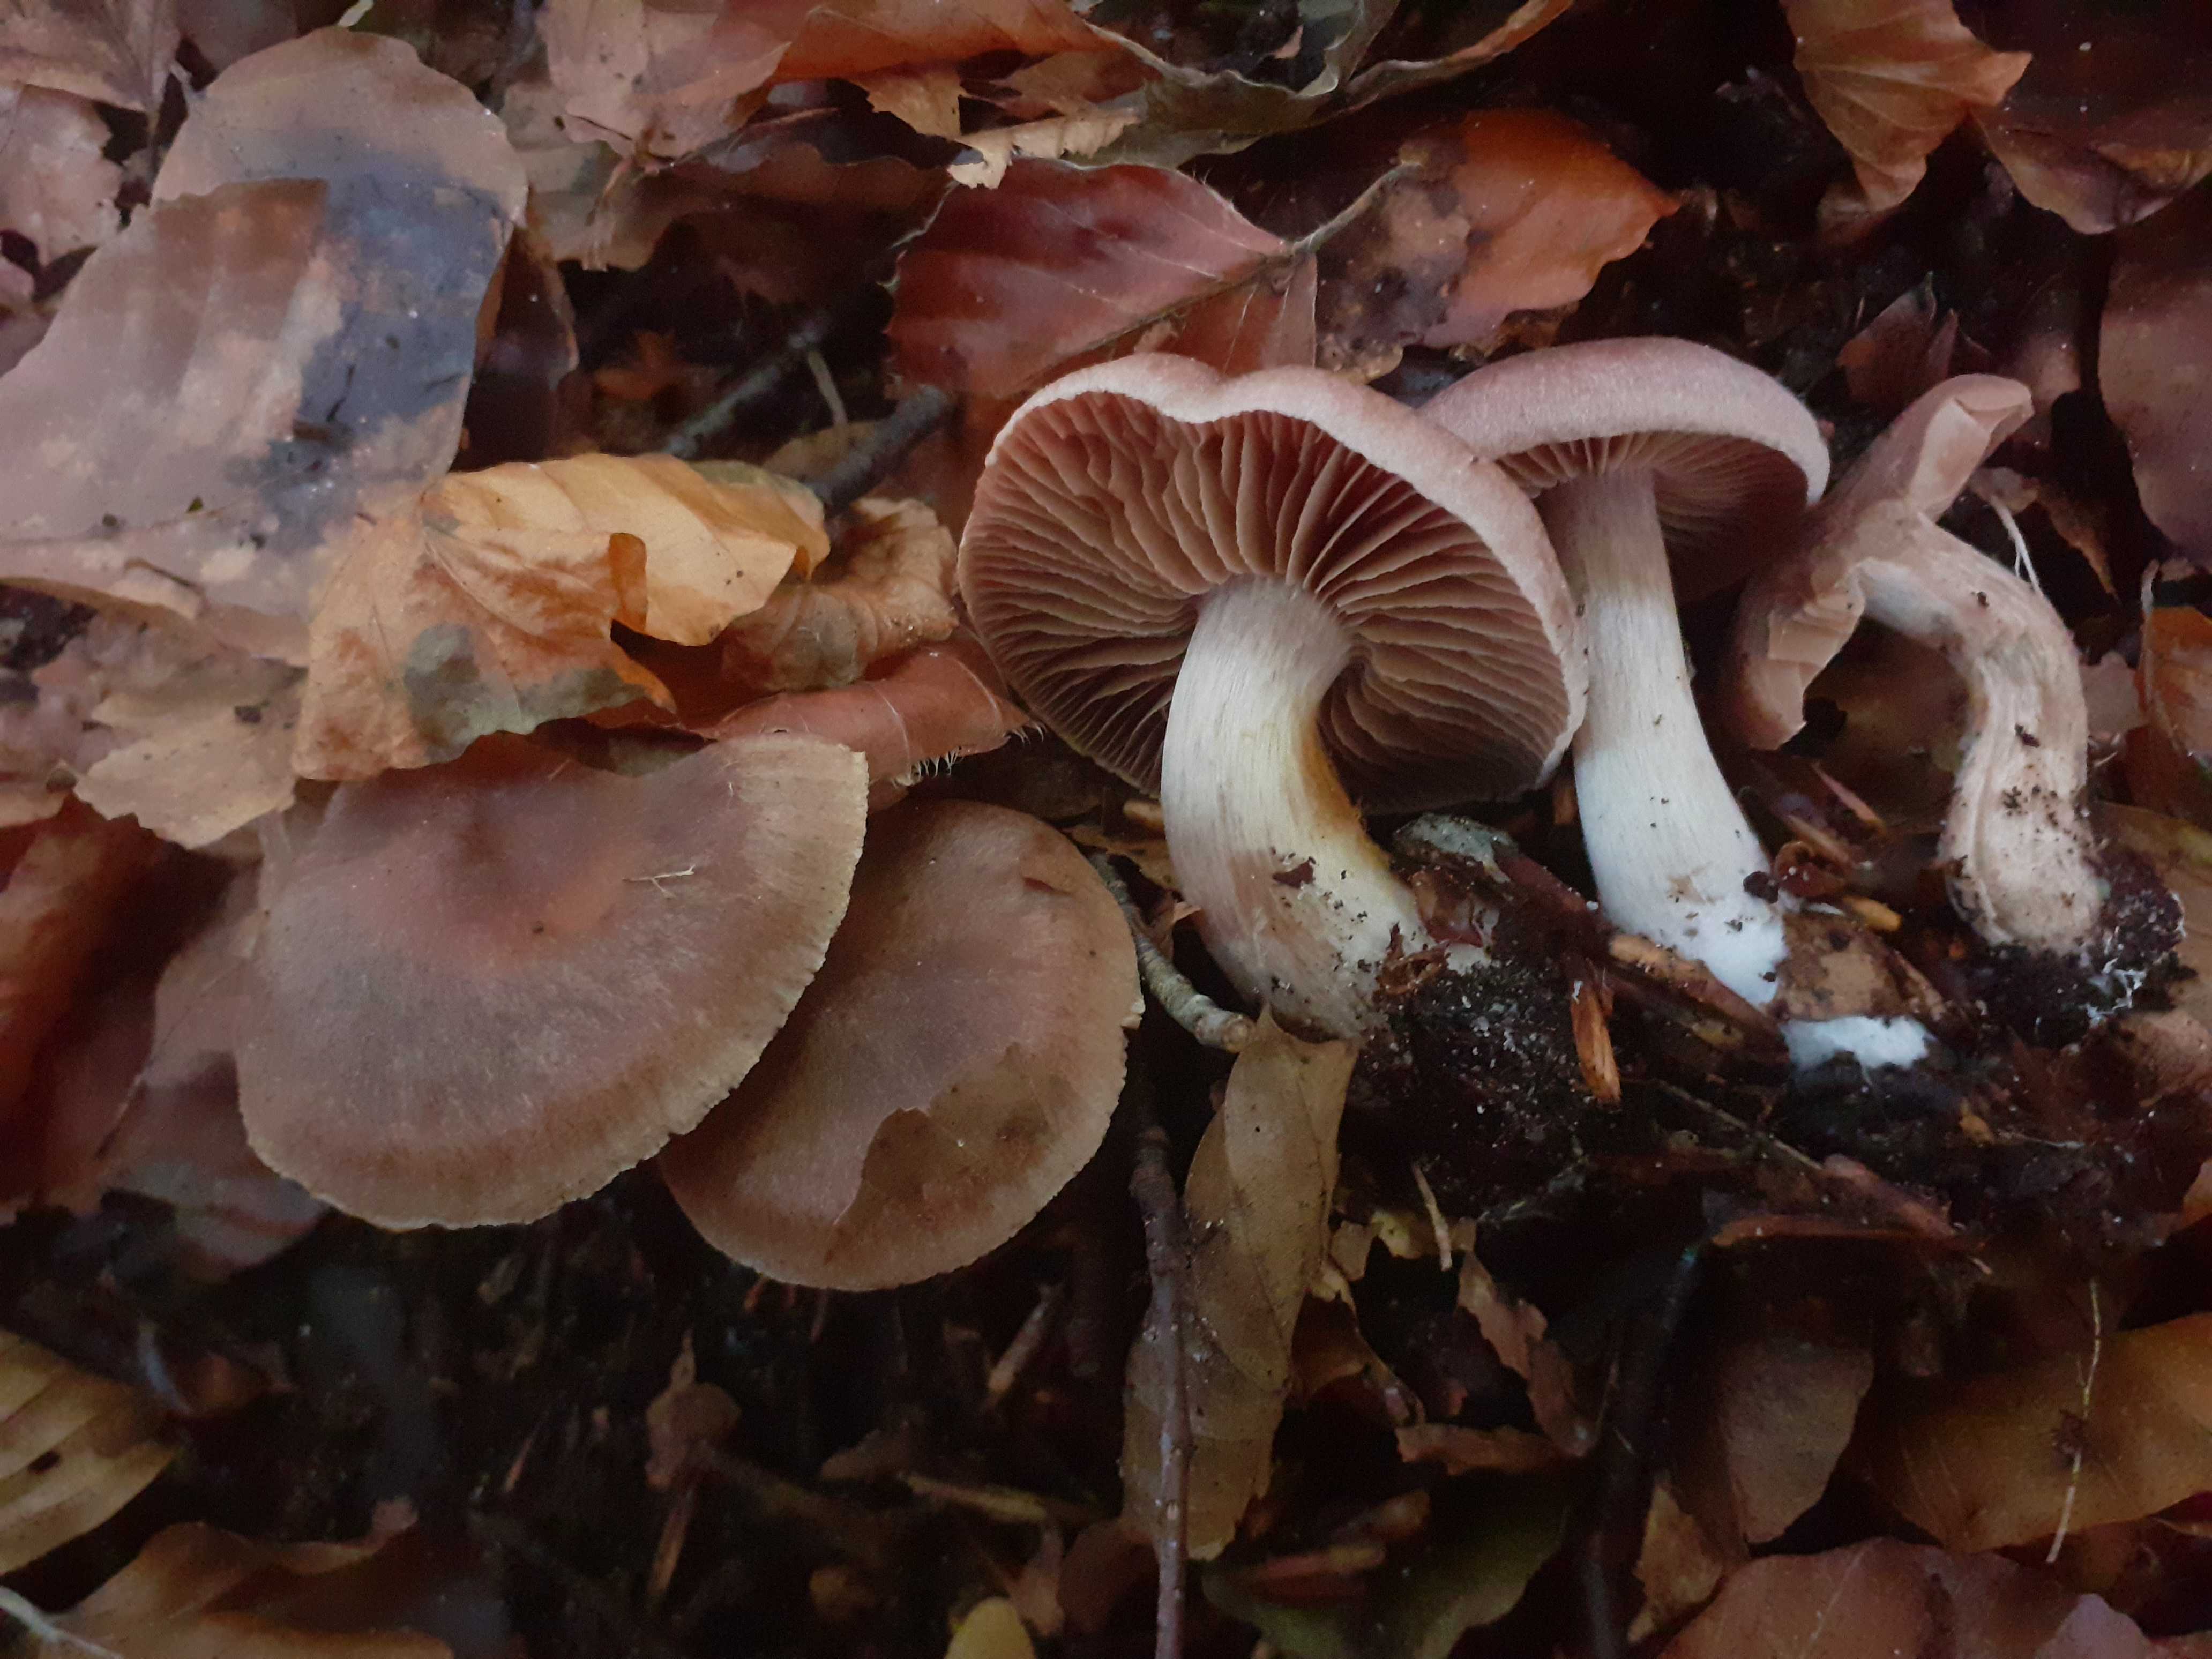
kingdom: Fungi
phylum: Basidiomycota
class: Agaricomycetes
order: Agaricales
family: Cortinariaceae
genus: Cortinarius
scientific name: Cortinarius suboxytoneus
